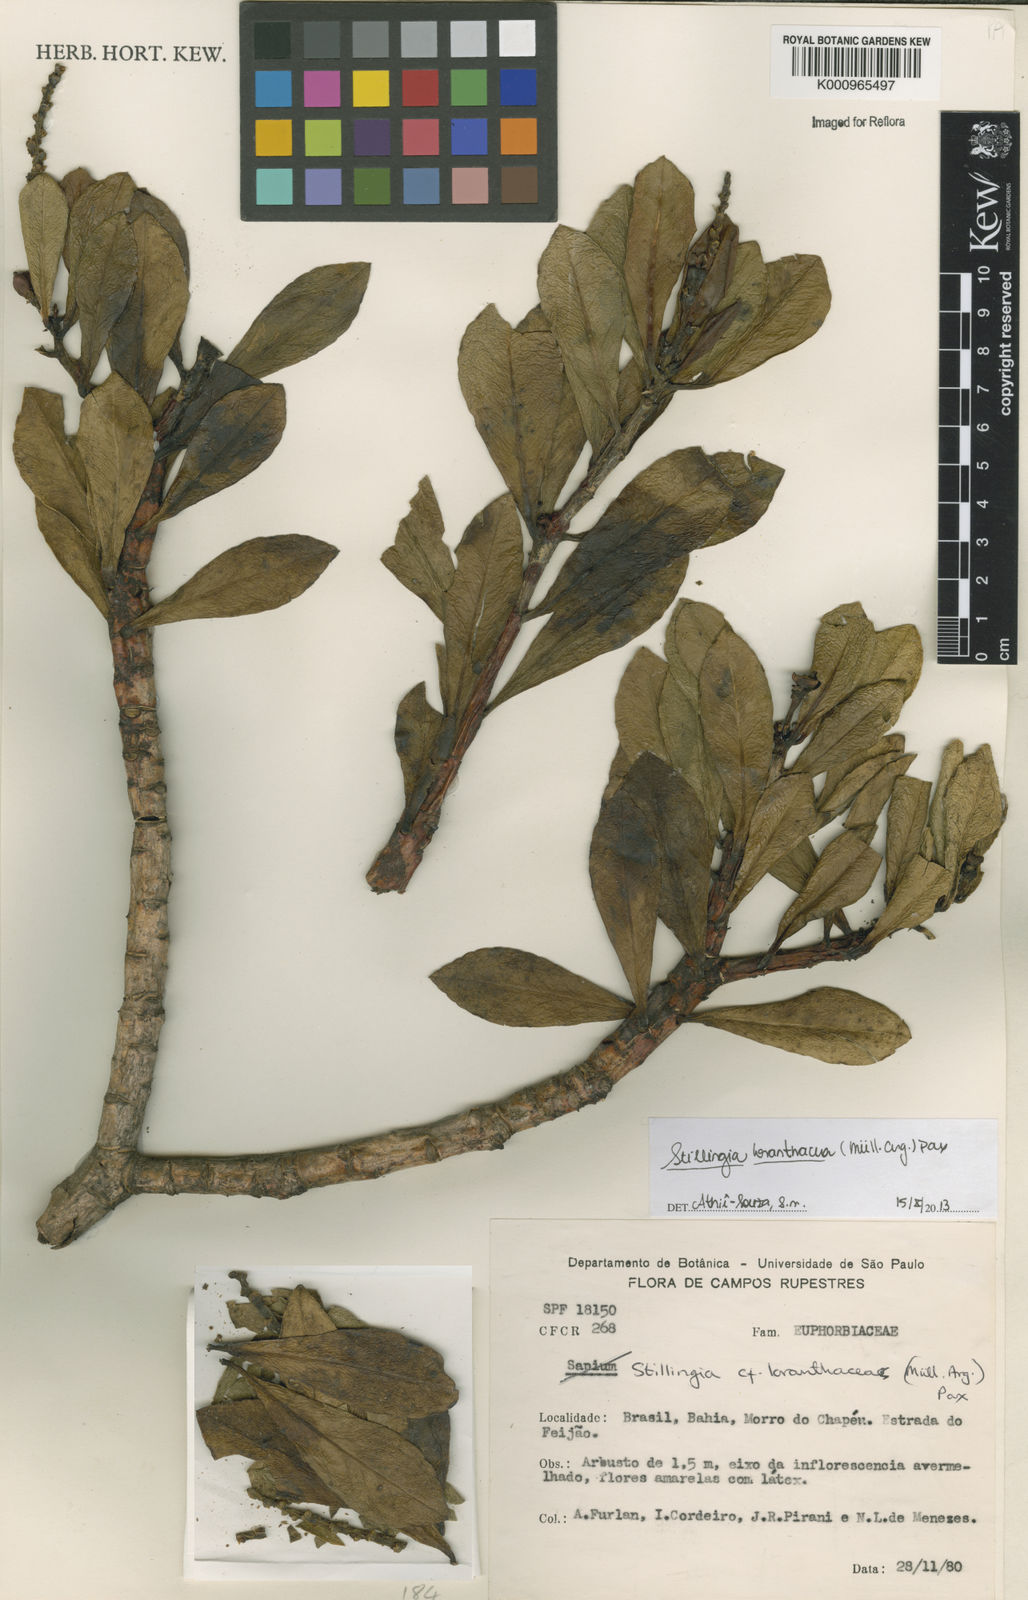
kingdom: Plantae
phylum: Tracheophyta
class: Magnoliopsida
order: Malpighiales
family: Euphorbiaceae
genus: Stillingia
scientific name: Stillingia saxatilis
